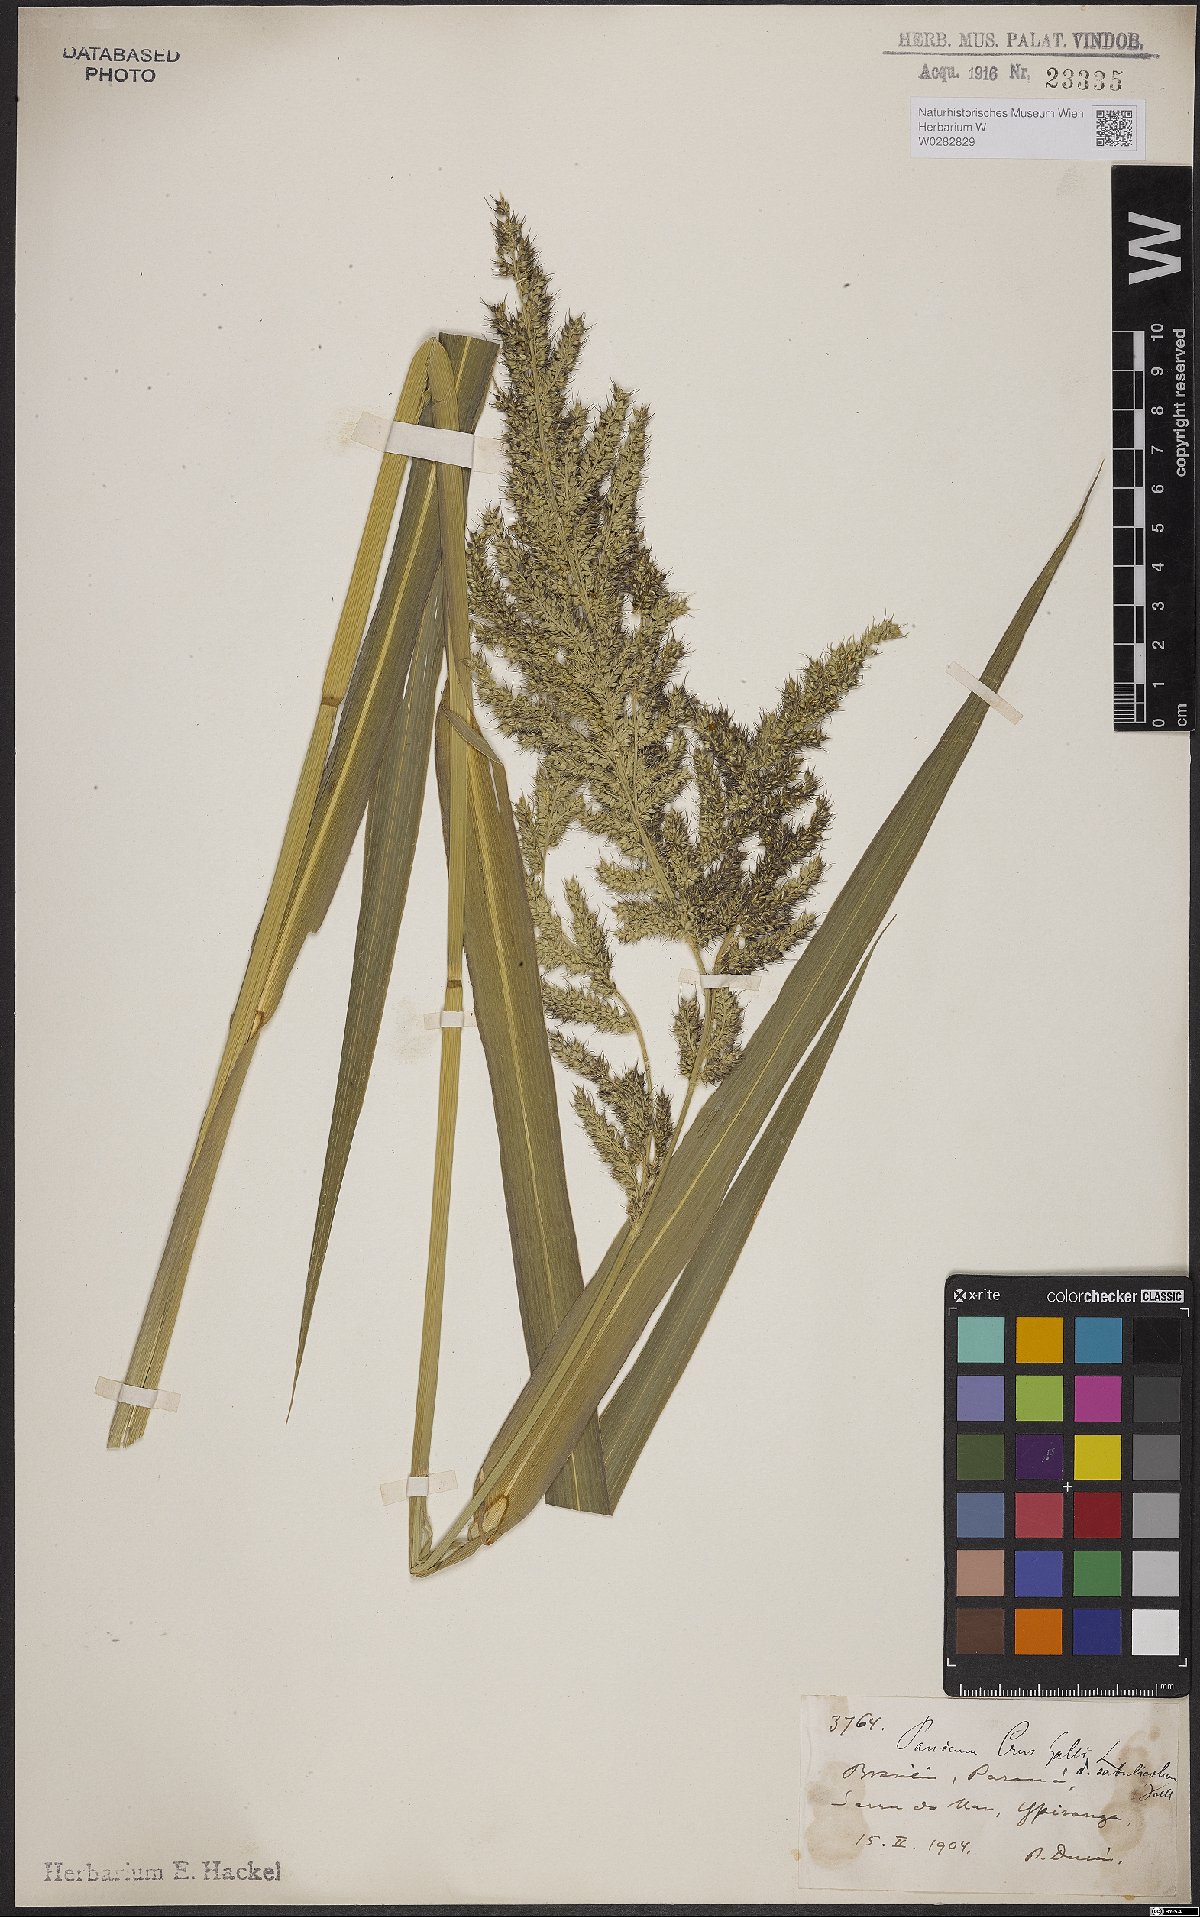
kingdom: Plantae
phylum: Tracheophyta
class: Liliopsida
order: Poales
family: Poaceae
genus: Echinochloa
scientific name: Echinochloa crus-pavonis
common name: Gulf cockspur grass
